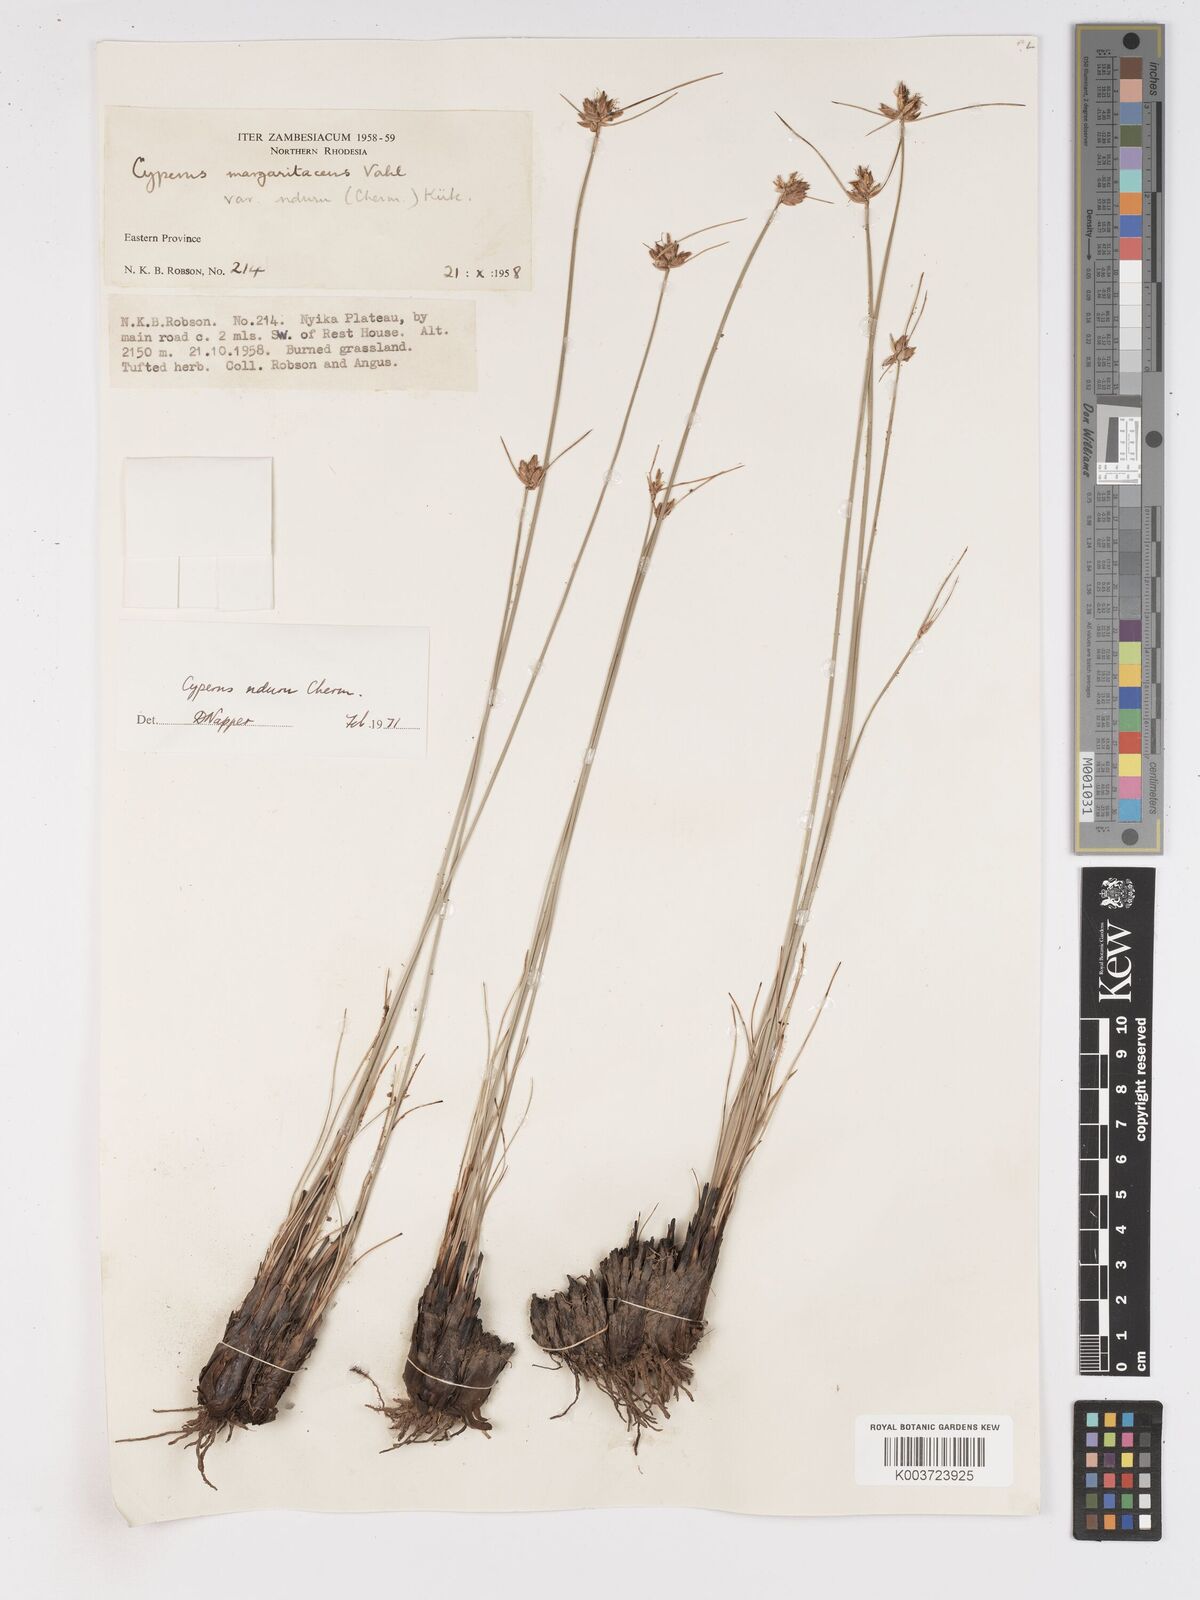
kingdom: Plantae
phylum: Tracheophyta
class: Liliopsida
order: Poales
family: Cyperaceae
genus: Cyperus
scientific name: Cyperus nduru
